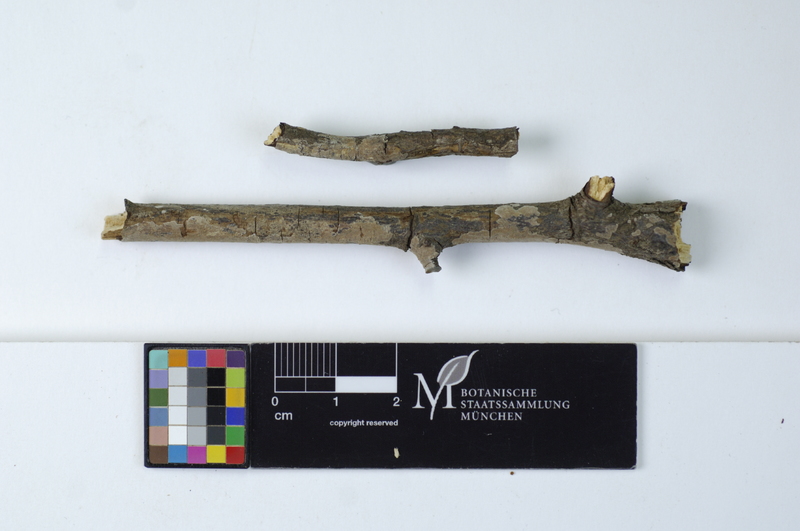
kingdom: Plantae
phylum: Tracheophyta
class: Magnoliopsida
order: Rosales
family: Rosaceae
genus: Rosa
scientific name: Rosa
